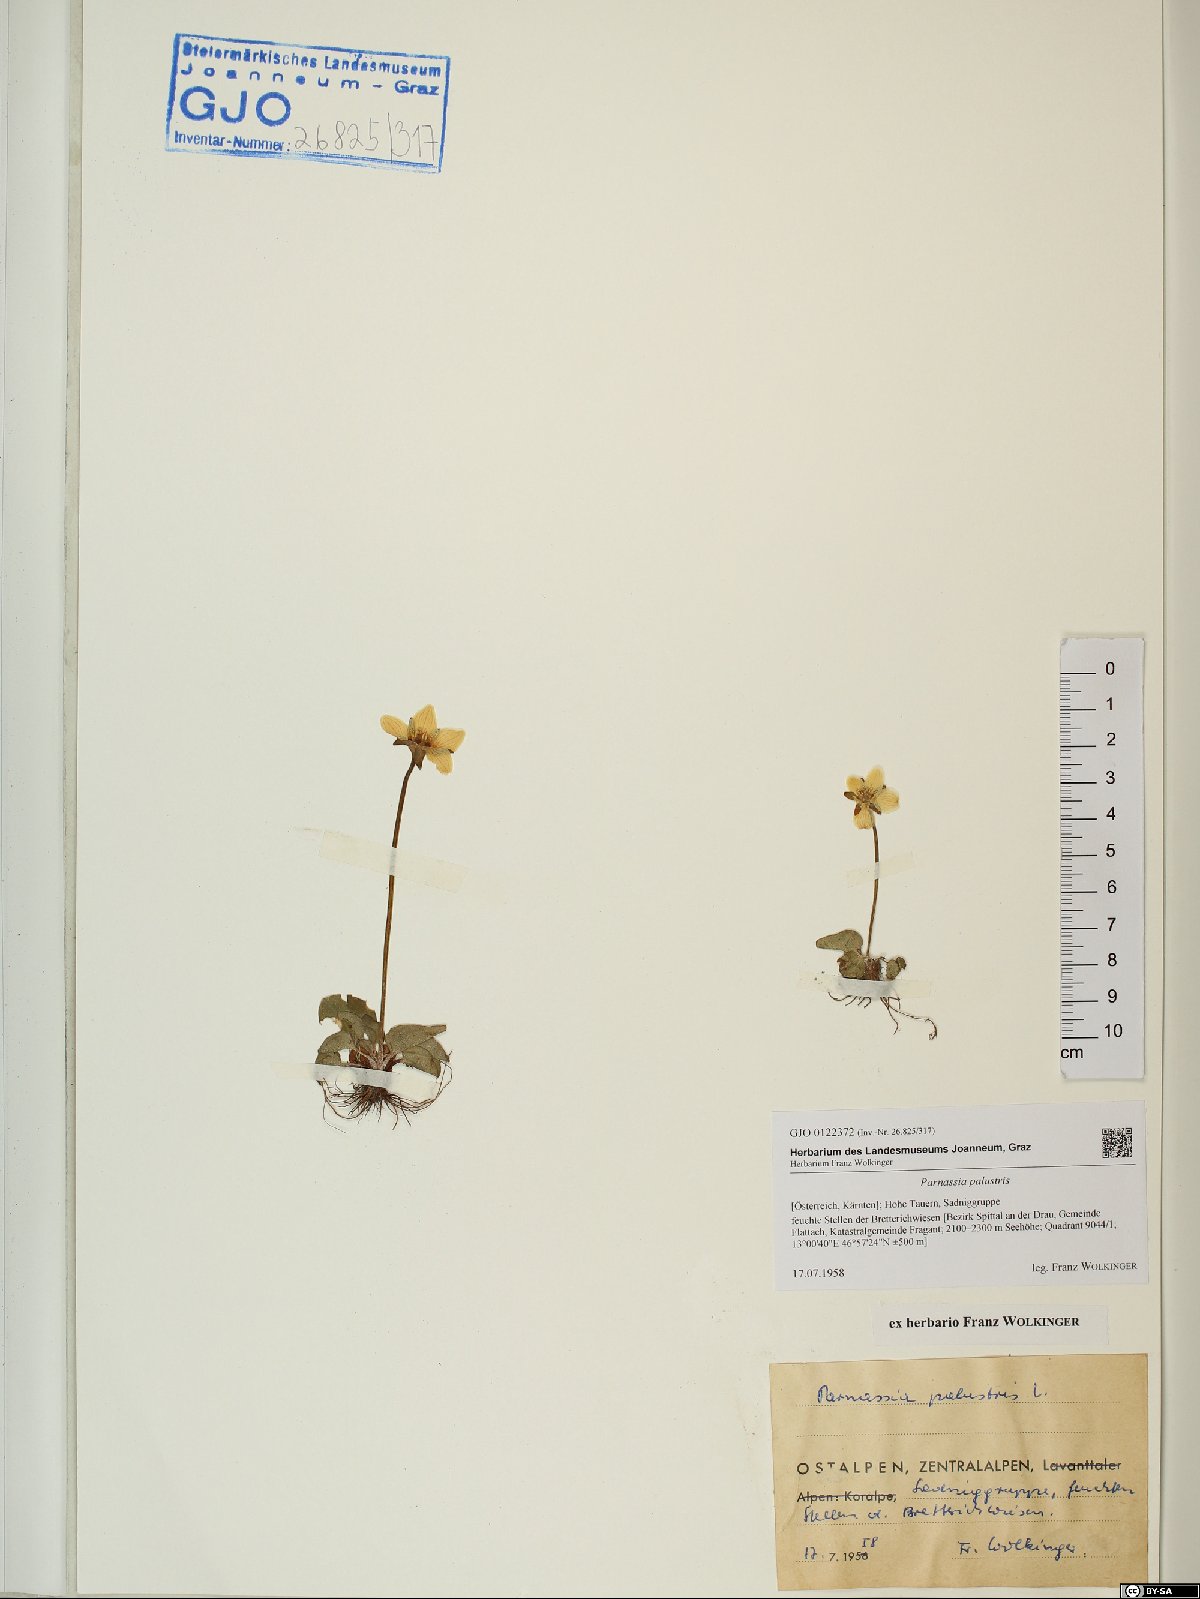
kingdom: Plantae
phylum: Tracheophyta
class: Magnoliopsida
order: Celastrales
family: Parnassiaceae
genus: Parnassia
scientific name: Parnassia palustris
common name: Grass-of-parnassus
